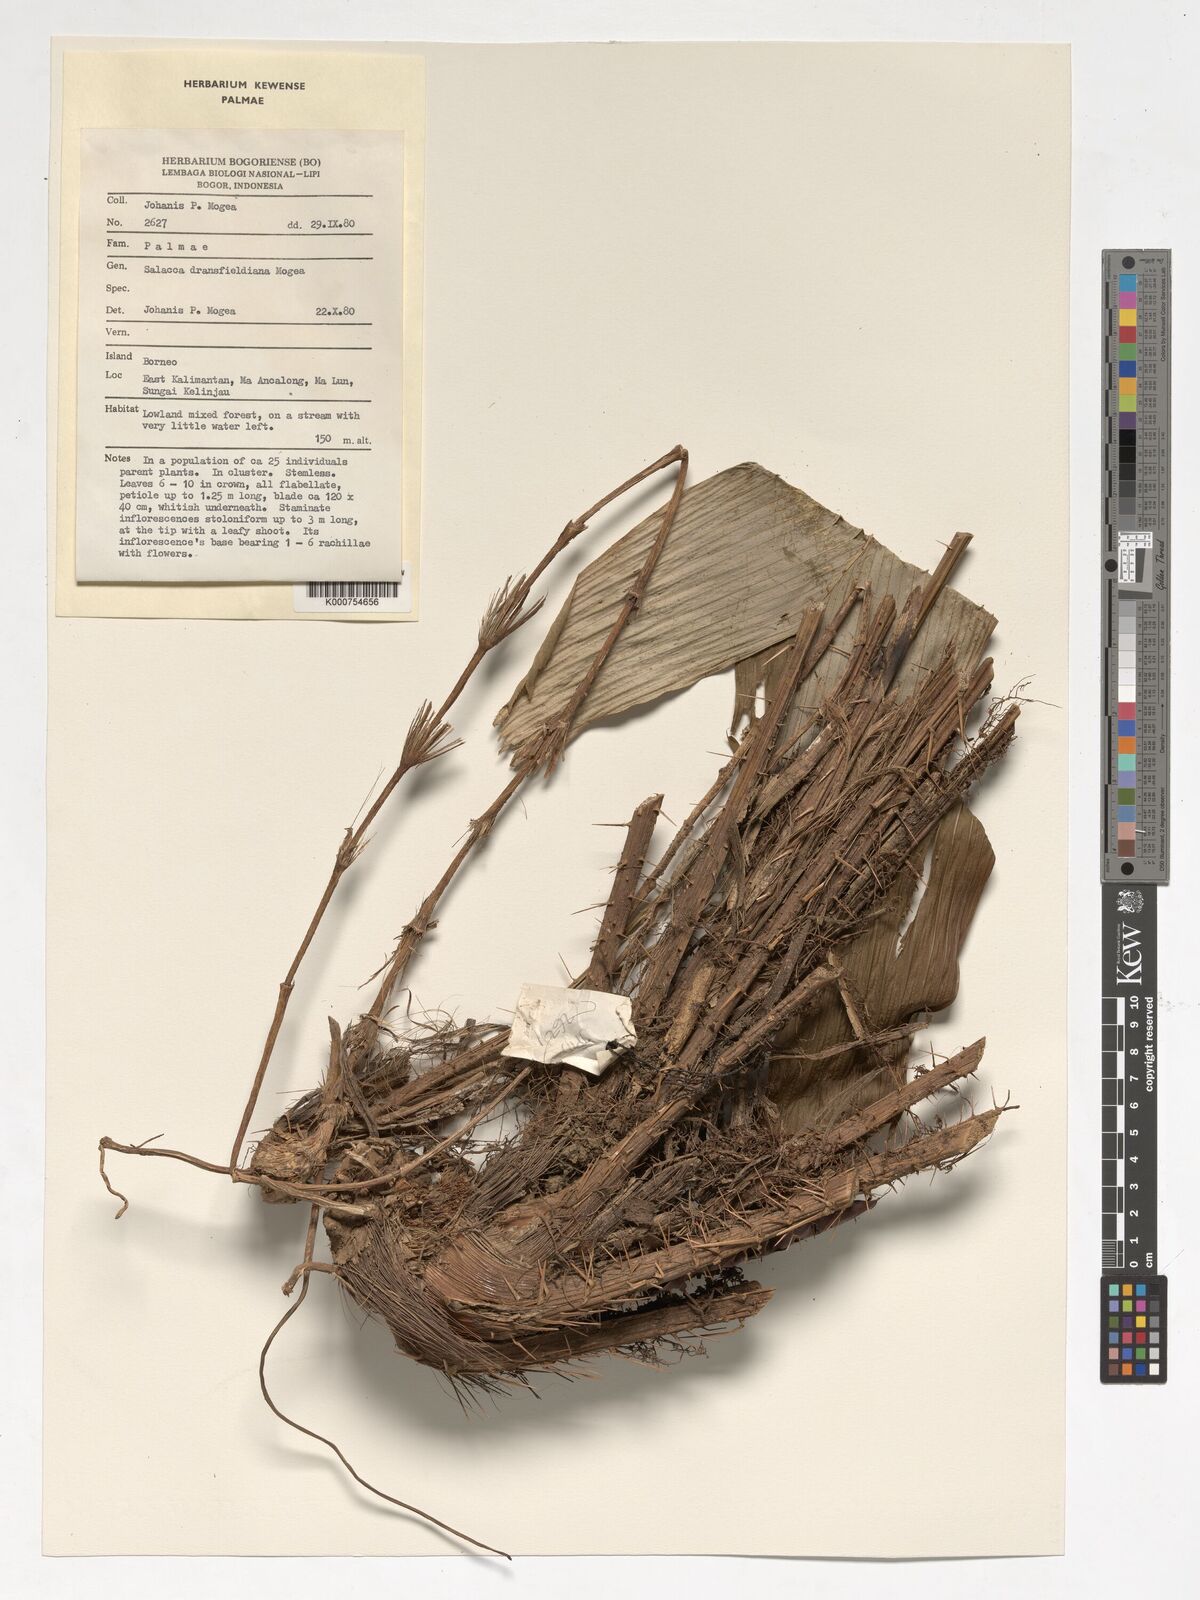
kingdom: Plantae
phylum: Tracheophyta
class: Liliopsida
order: Arecales
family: Arecaceae
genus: Salacca
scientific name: Salacca dransfieldiana
